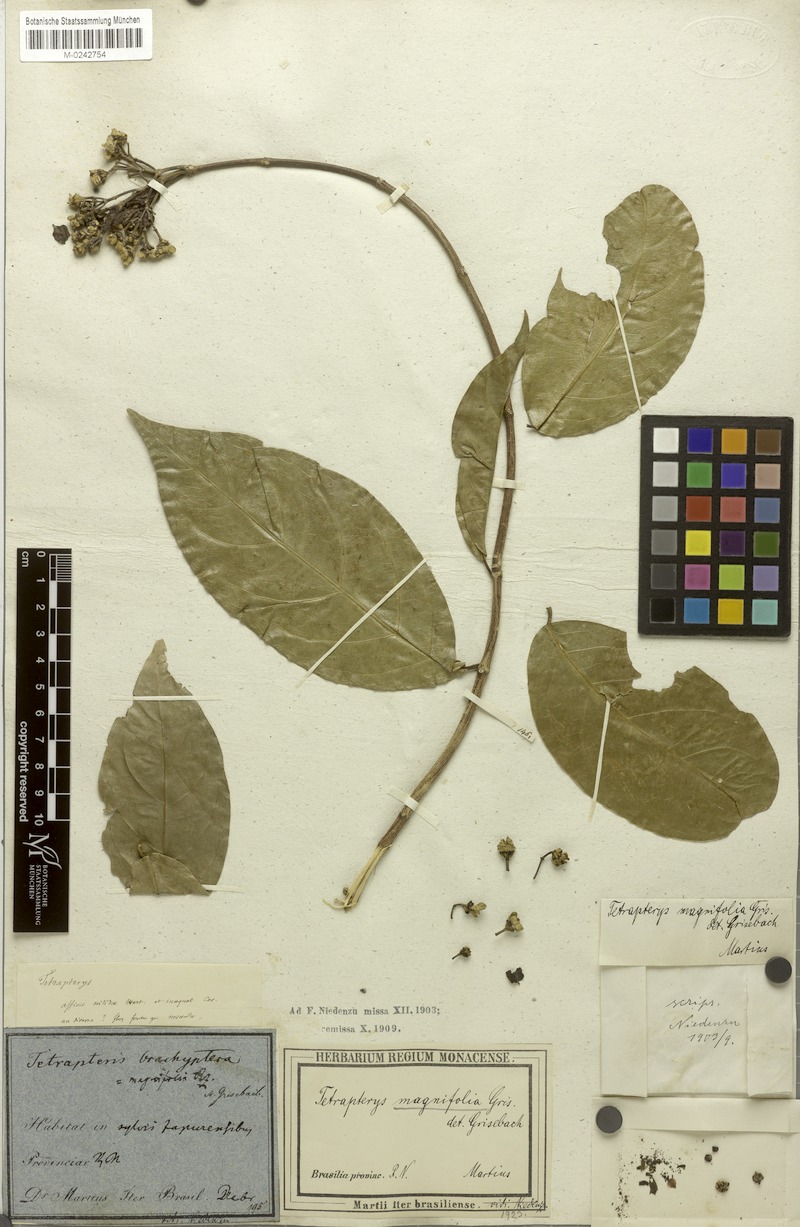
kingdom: Plantae
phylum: Tracheophyta
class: Magnoliopsida
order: Malpighiales
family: Malpighiaceae
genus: Tetrapterys
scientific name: Tetrapterys magnifolia
